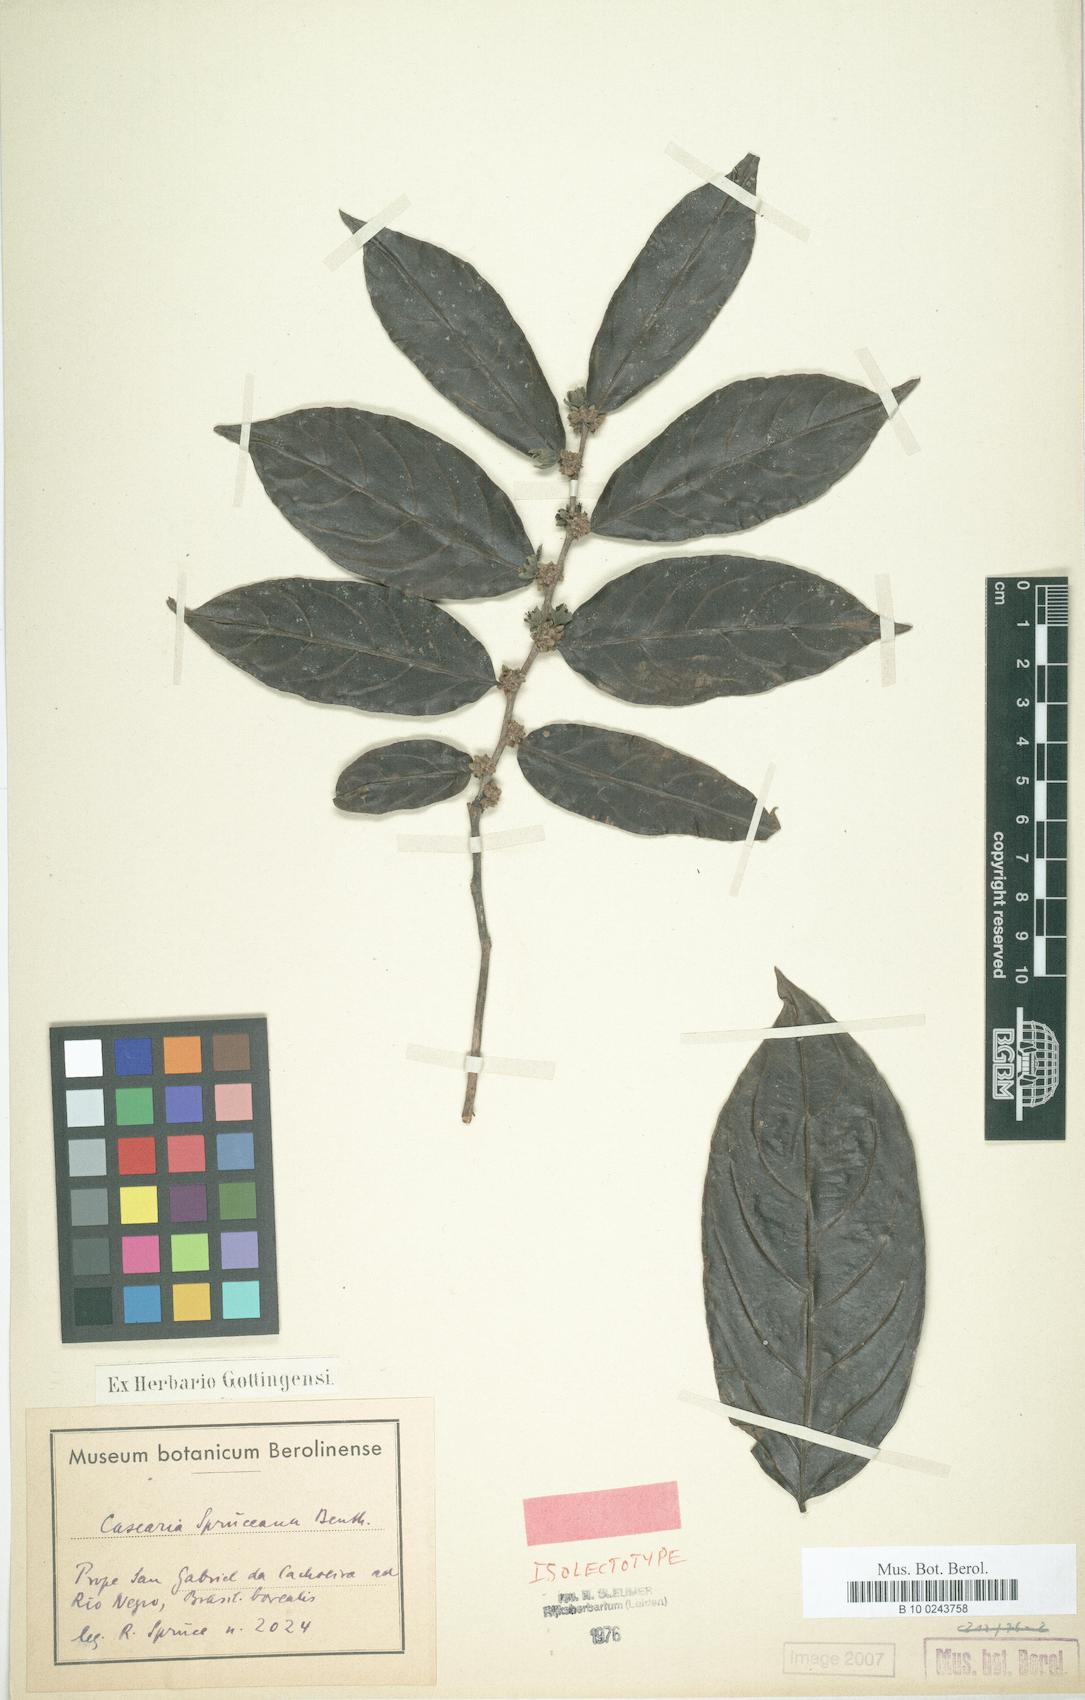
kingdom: Plantae
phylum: Tracheophyta
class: Magnoliopsida
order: Malpighiales
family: Salicaceae
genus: Piparea
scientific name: Piparea spruceana
